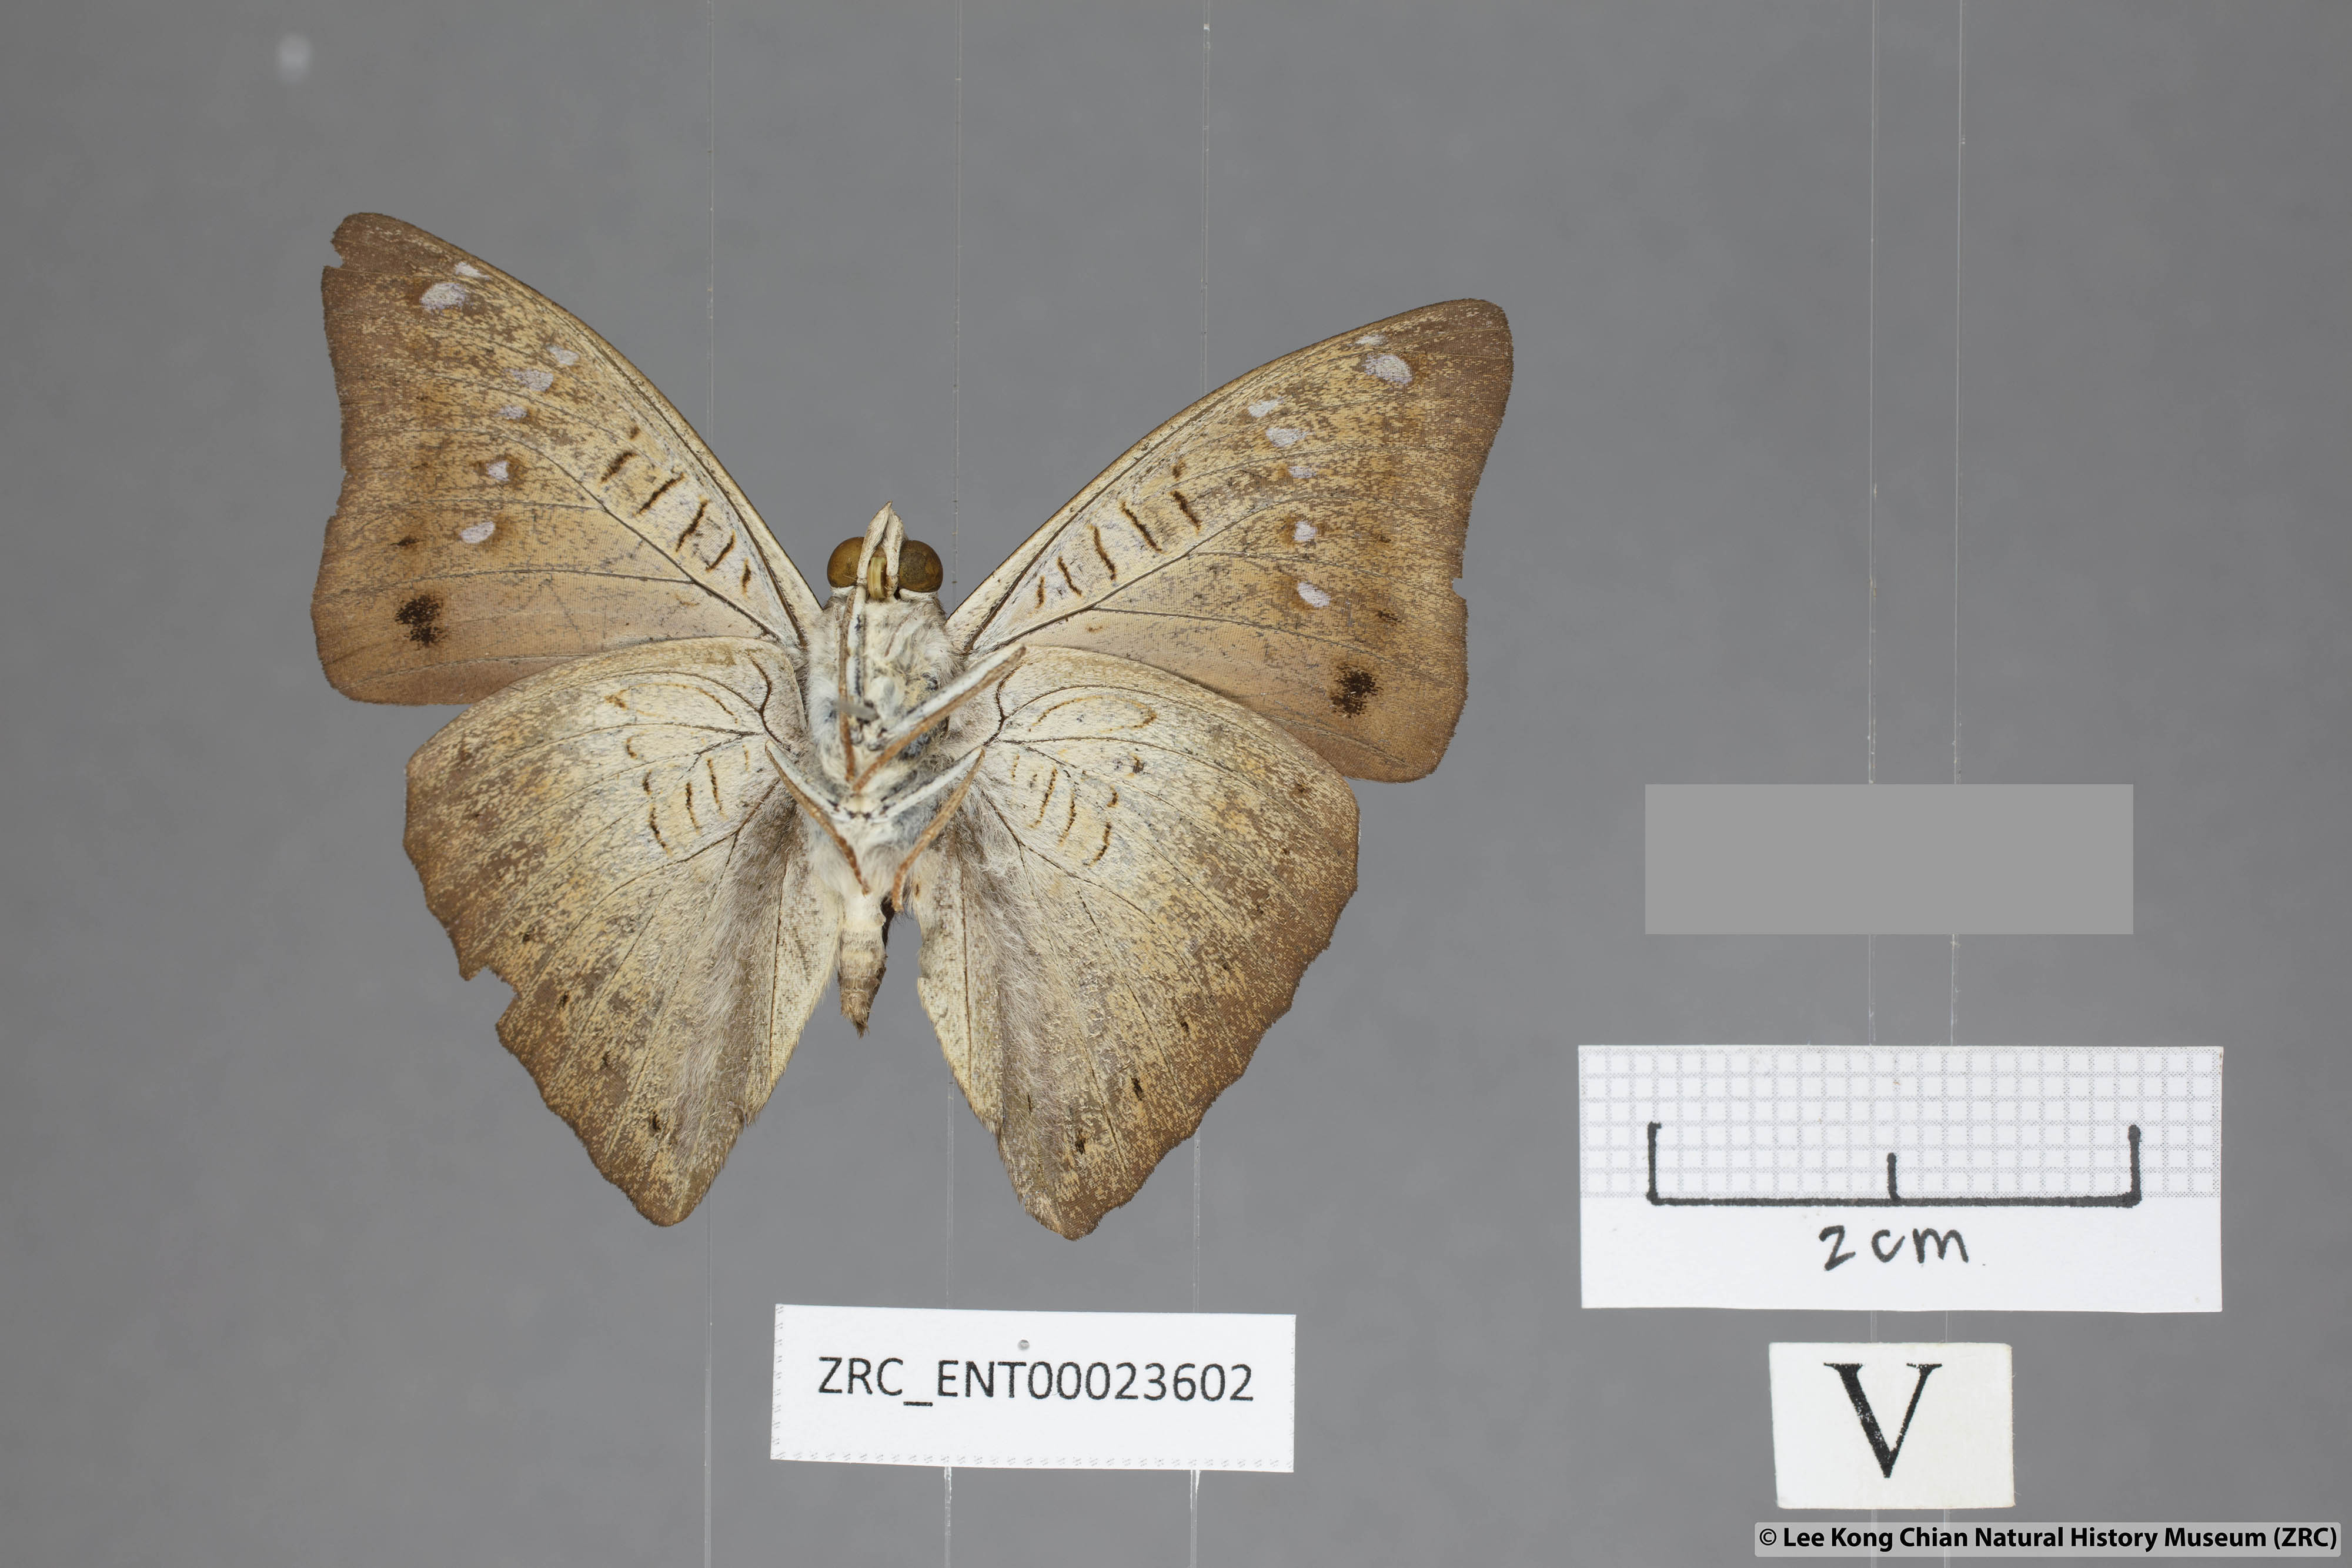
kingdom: Animalia
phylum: Arthropoda
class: Insecta
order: Lepidoptera
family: Nymphalidae
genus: Euthalia
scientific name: Euthalia agnis
